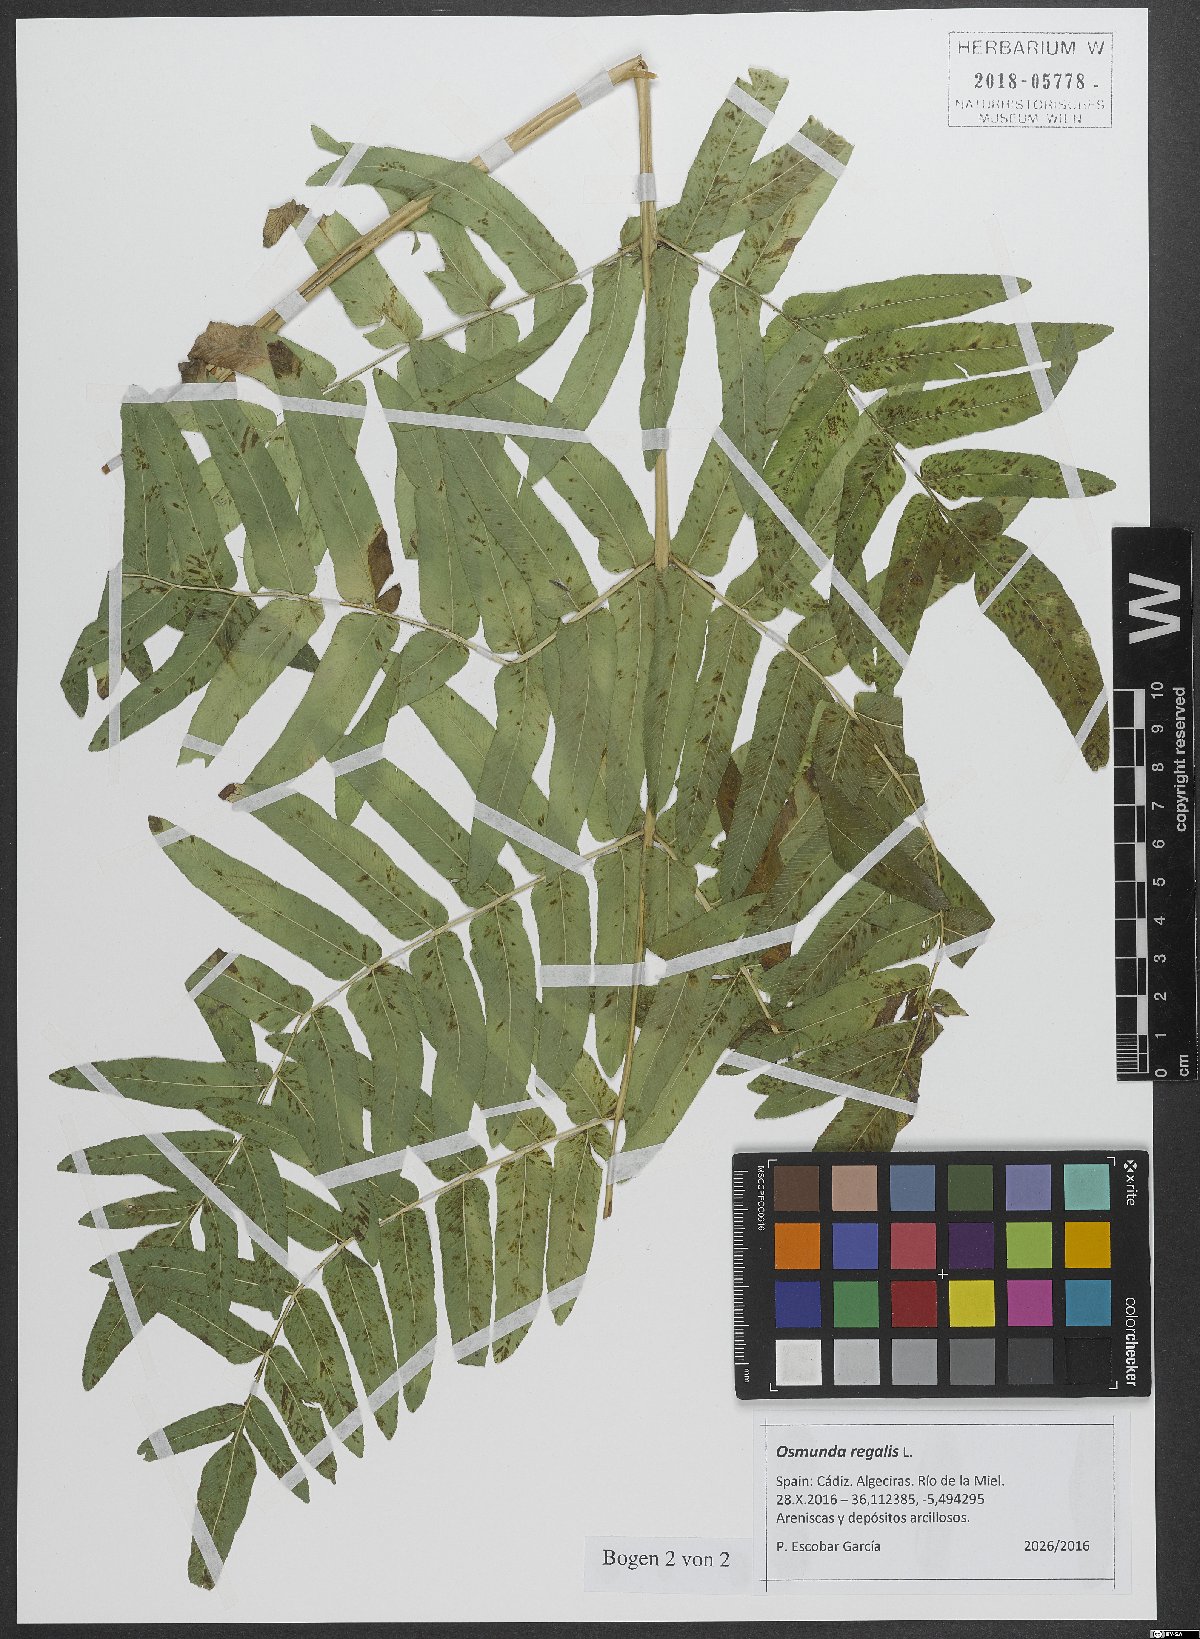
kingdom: Plantae
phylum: Tracheophyta
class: Polypodiopsida
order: Osmundales
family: Osmundaceae
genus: Osmunda
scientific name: Osmunda regalis
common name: Royal fern
